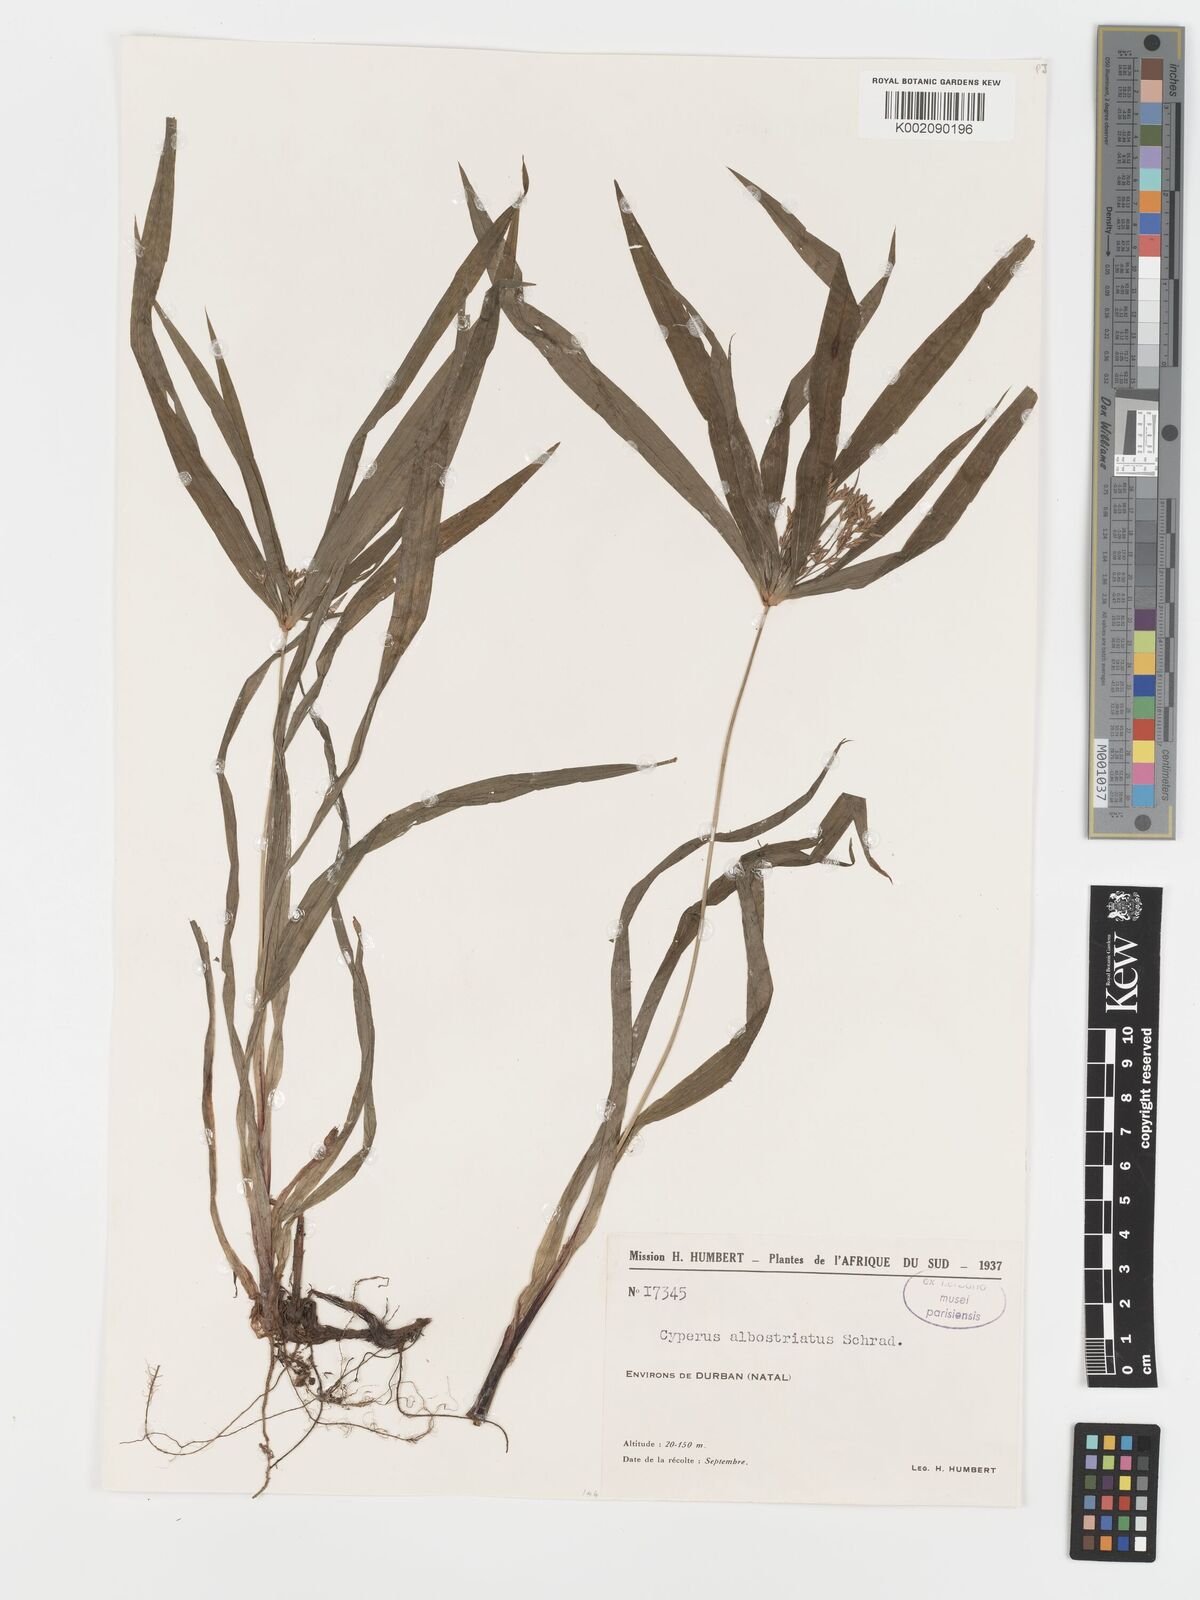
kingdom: Plantae
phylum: Tracheophyta
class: Liliopsida
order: Poales
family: Cyperaceae
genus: Cyperus
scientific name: Cyperus albostriatus
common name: Dwarf umbrella-grass
